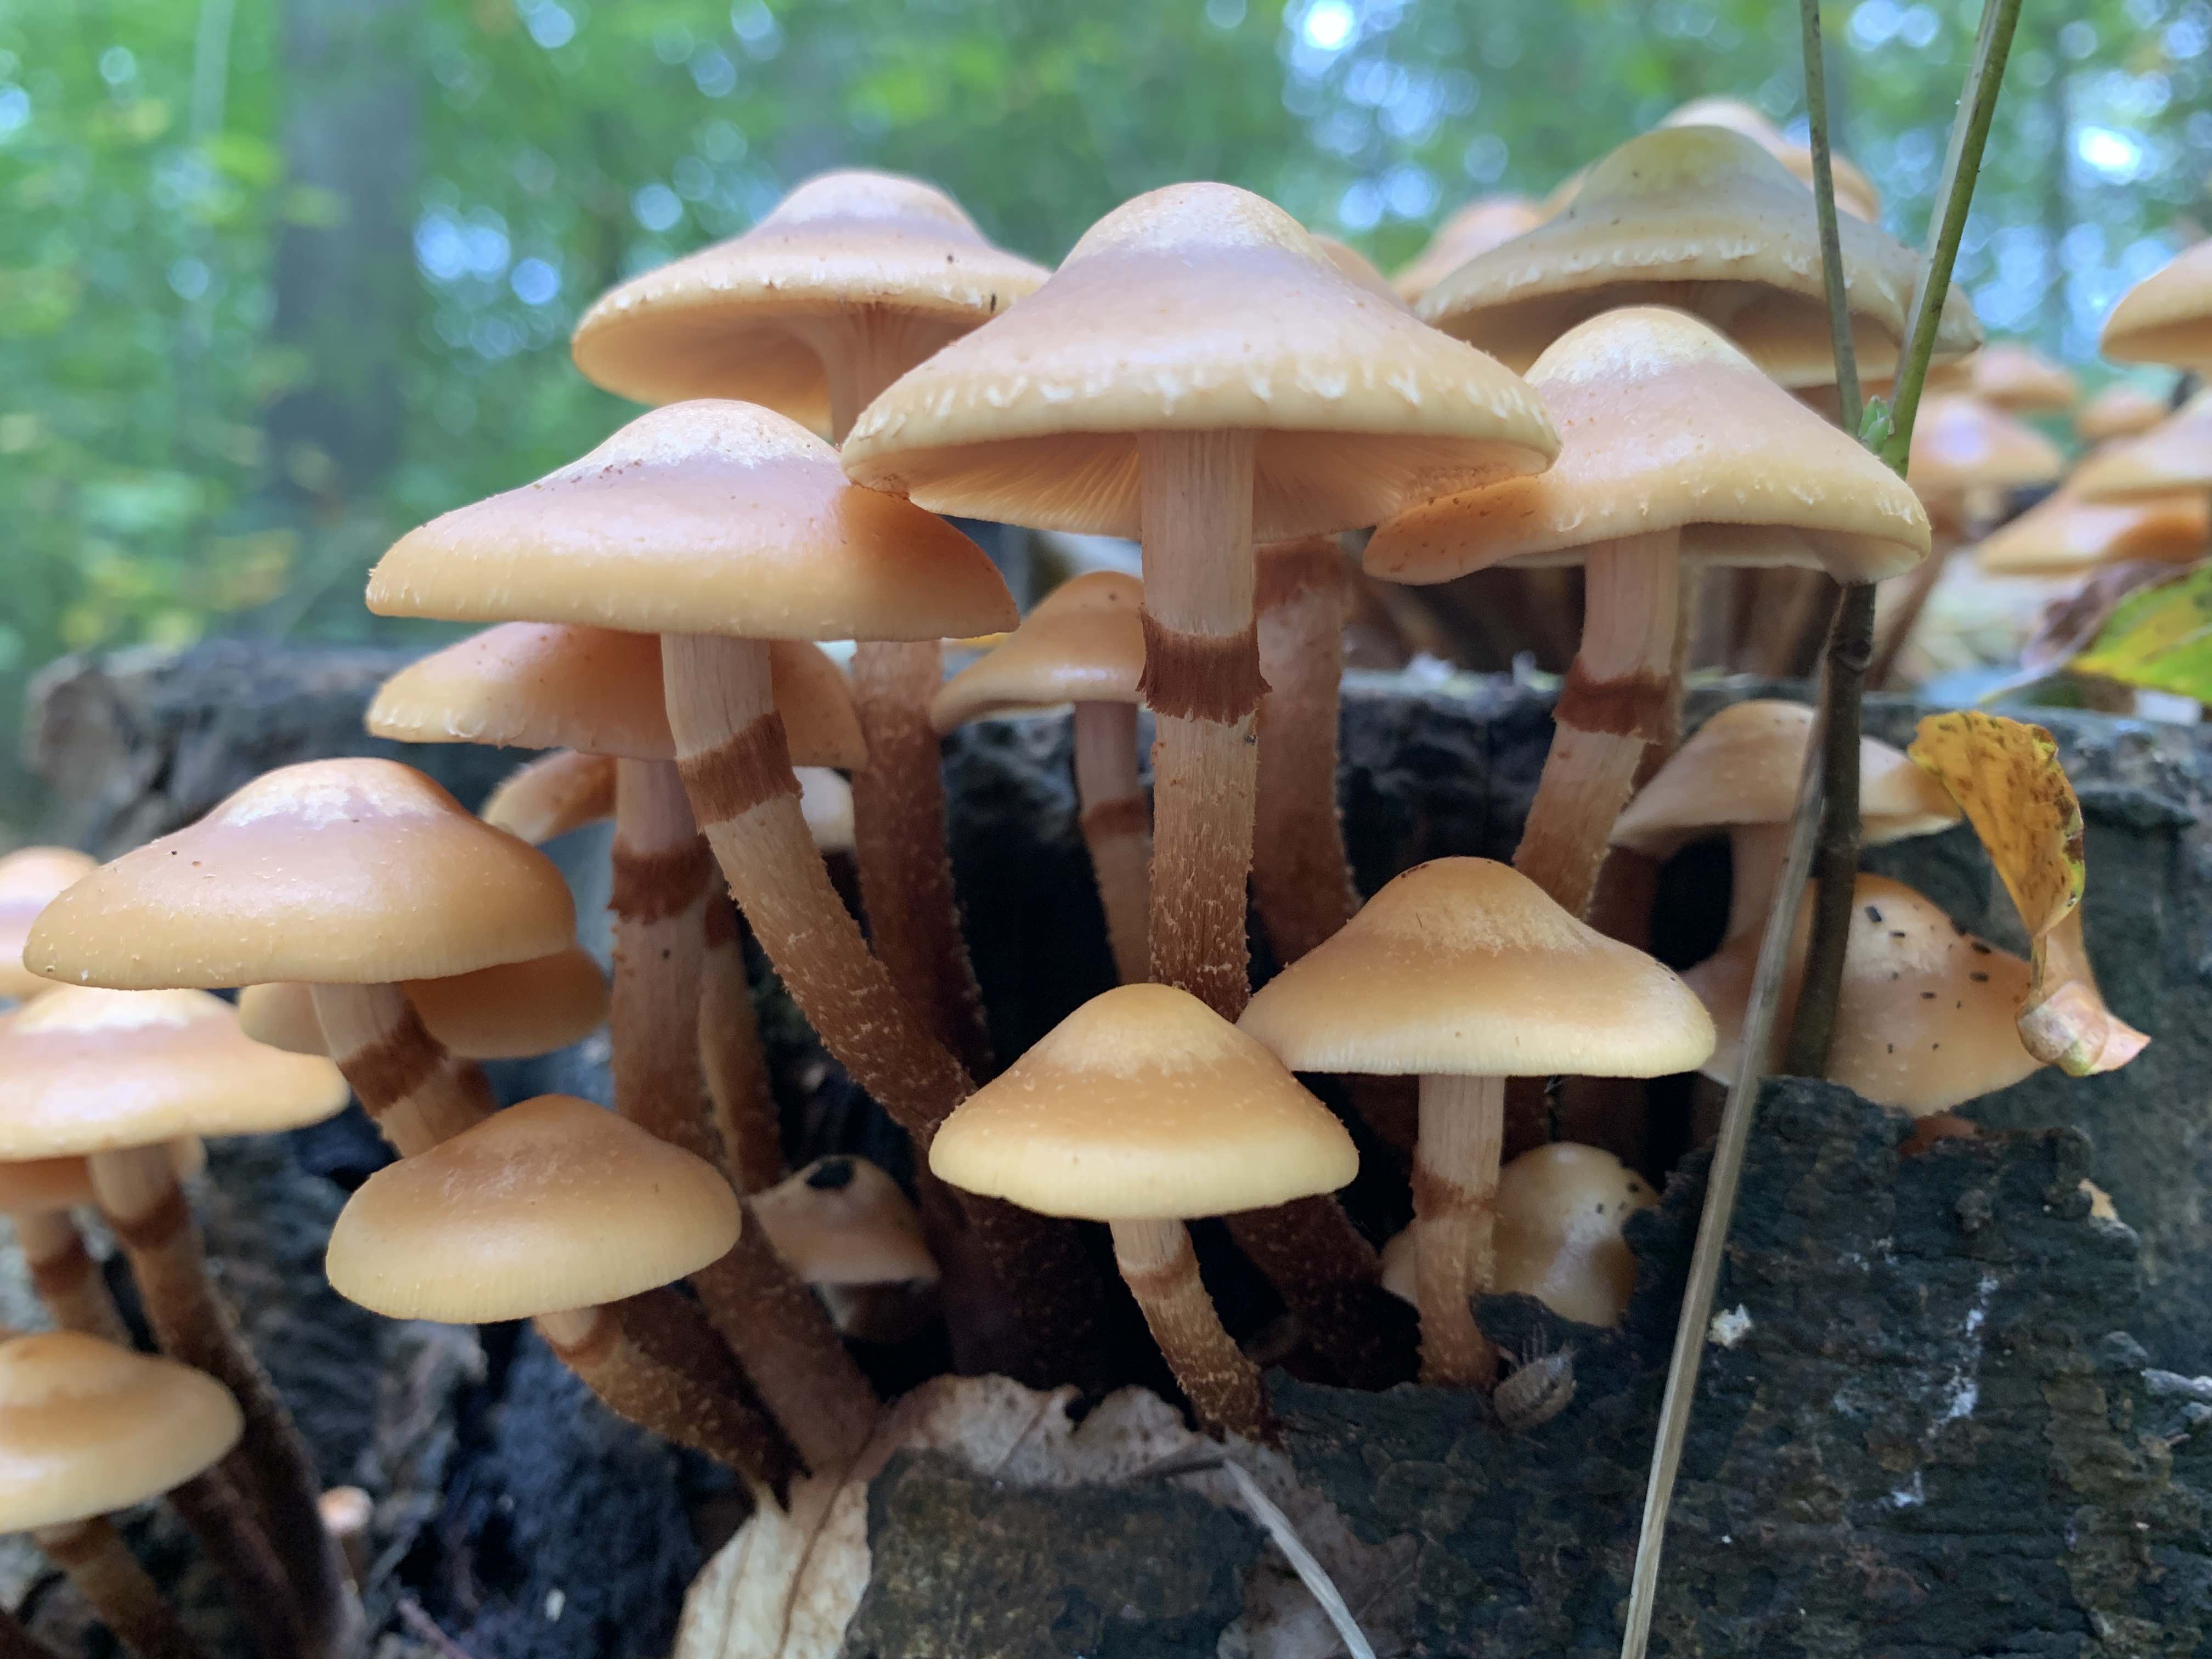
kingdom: Fungi
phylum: Basidiomycota
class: Agaricomycetes
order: Agaricales
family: Strophariaceae
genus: Kuehneromyces
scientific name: Kuehneromyces mutabilis
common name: foranderlig skælhat
